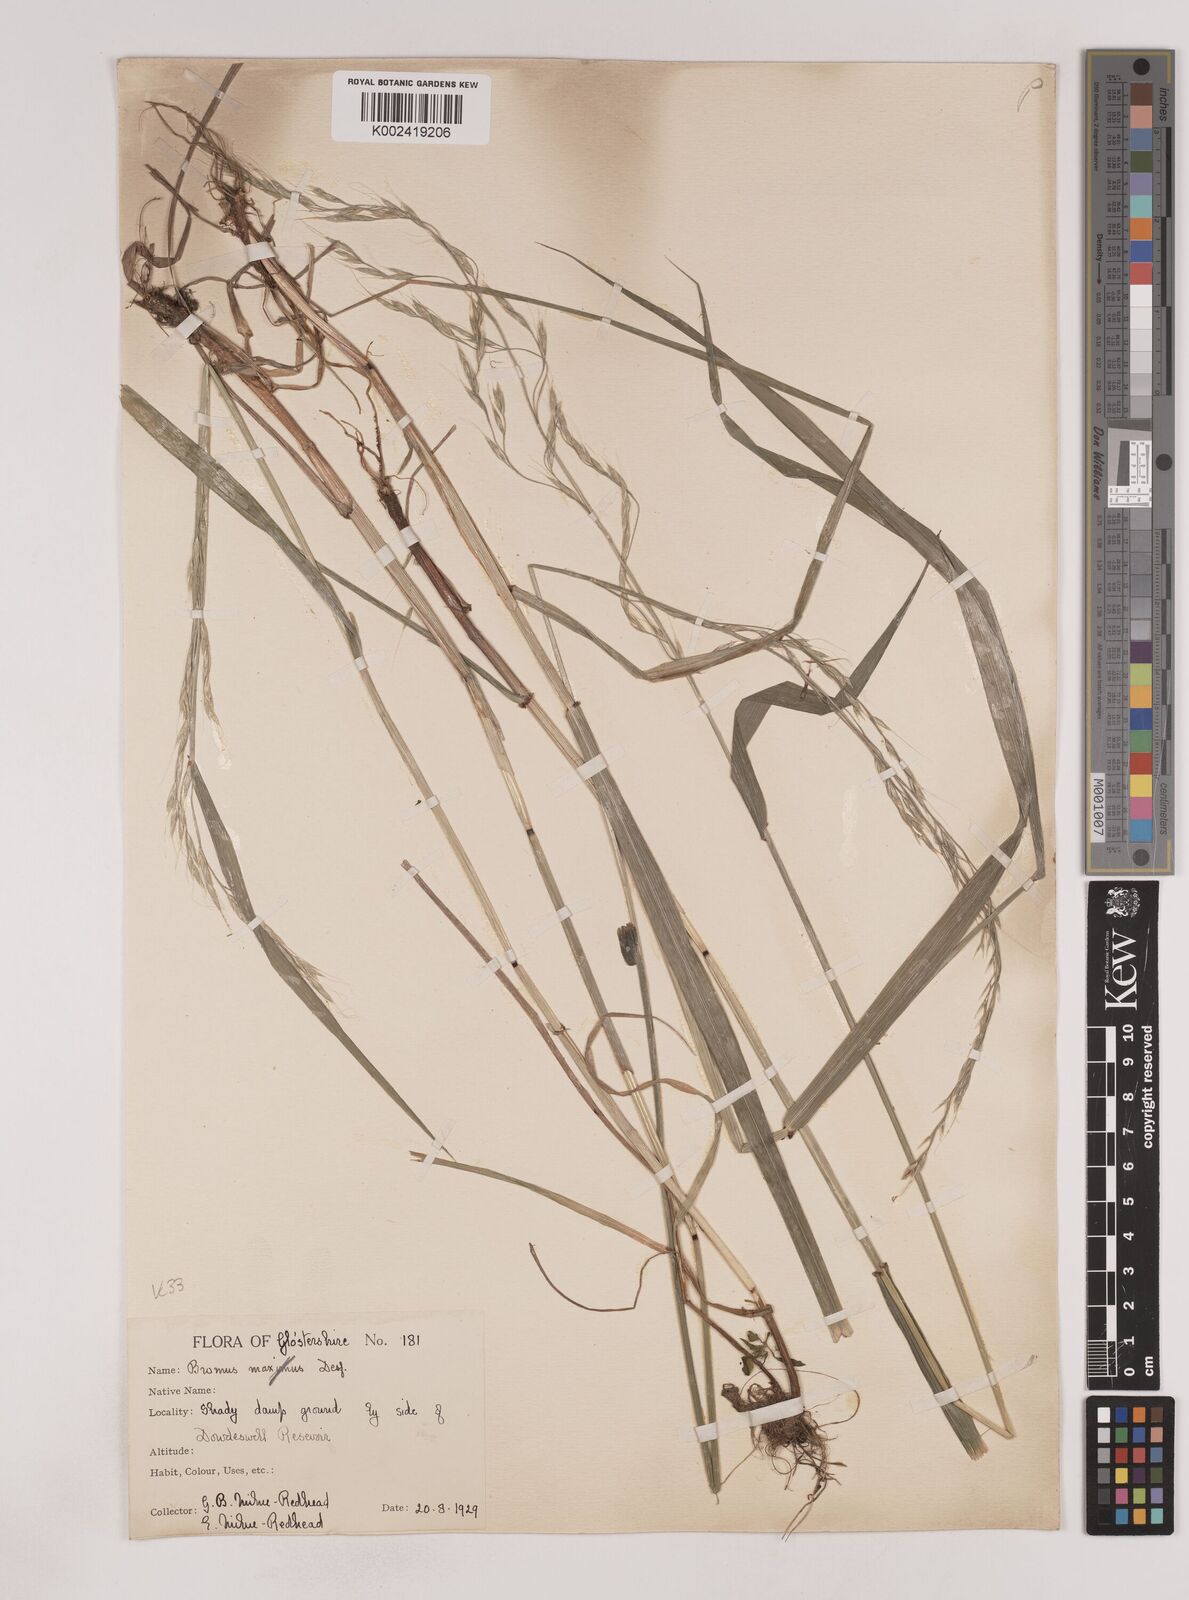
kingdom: Plantae
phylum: Tracheophyta
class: Liliopsida
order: Poales
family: Poaceae
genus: Lolium
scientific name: Lolium giganteum
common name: Giant fescue
